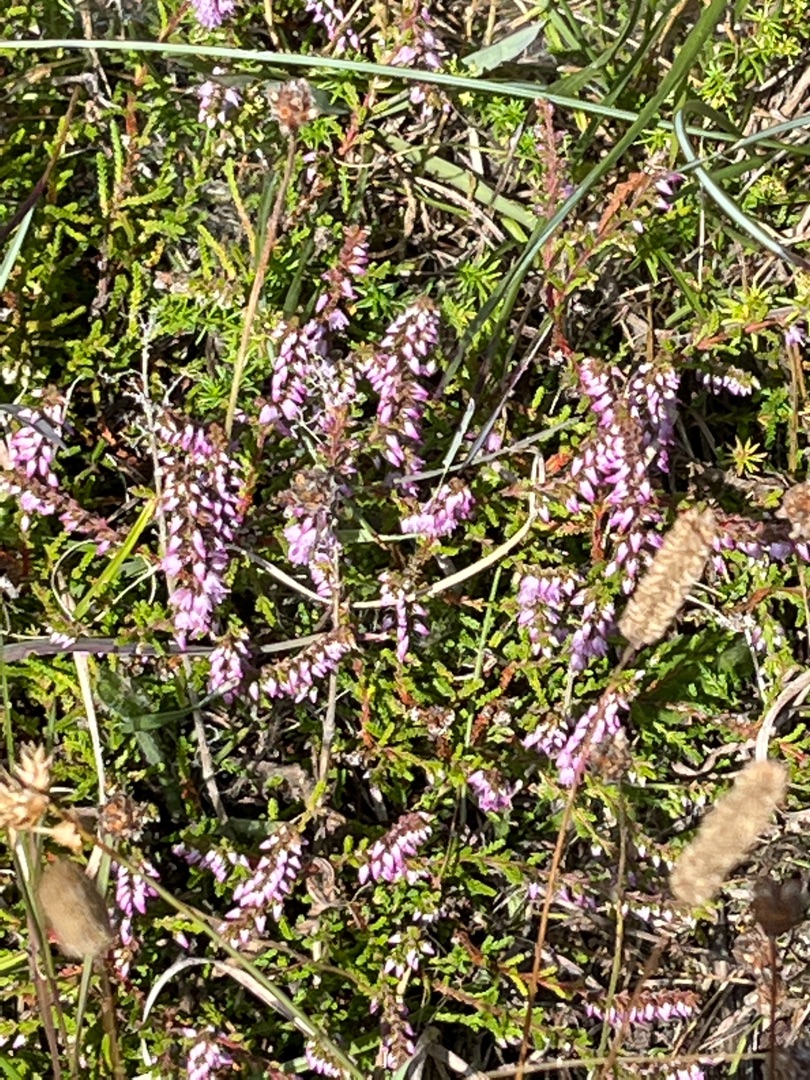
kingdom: Plantae
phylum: Tracheophyta
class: Magnoliopsida
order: Ericales
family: Ericaceae
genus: Calluna
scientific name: Calluna vulgaris
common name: Hedelyng
